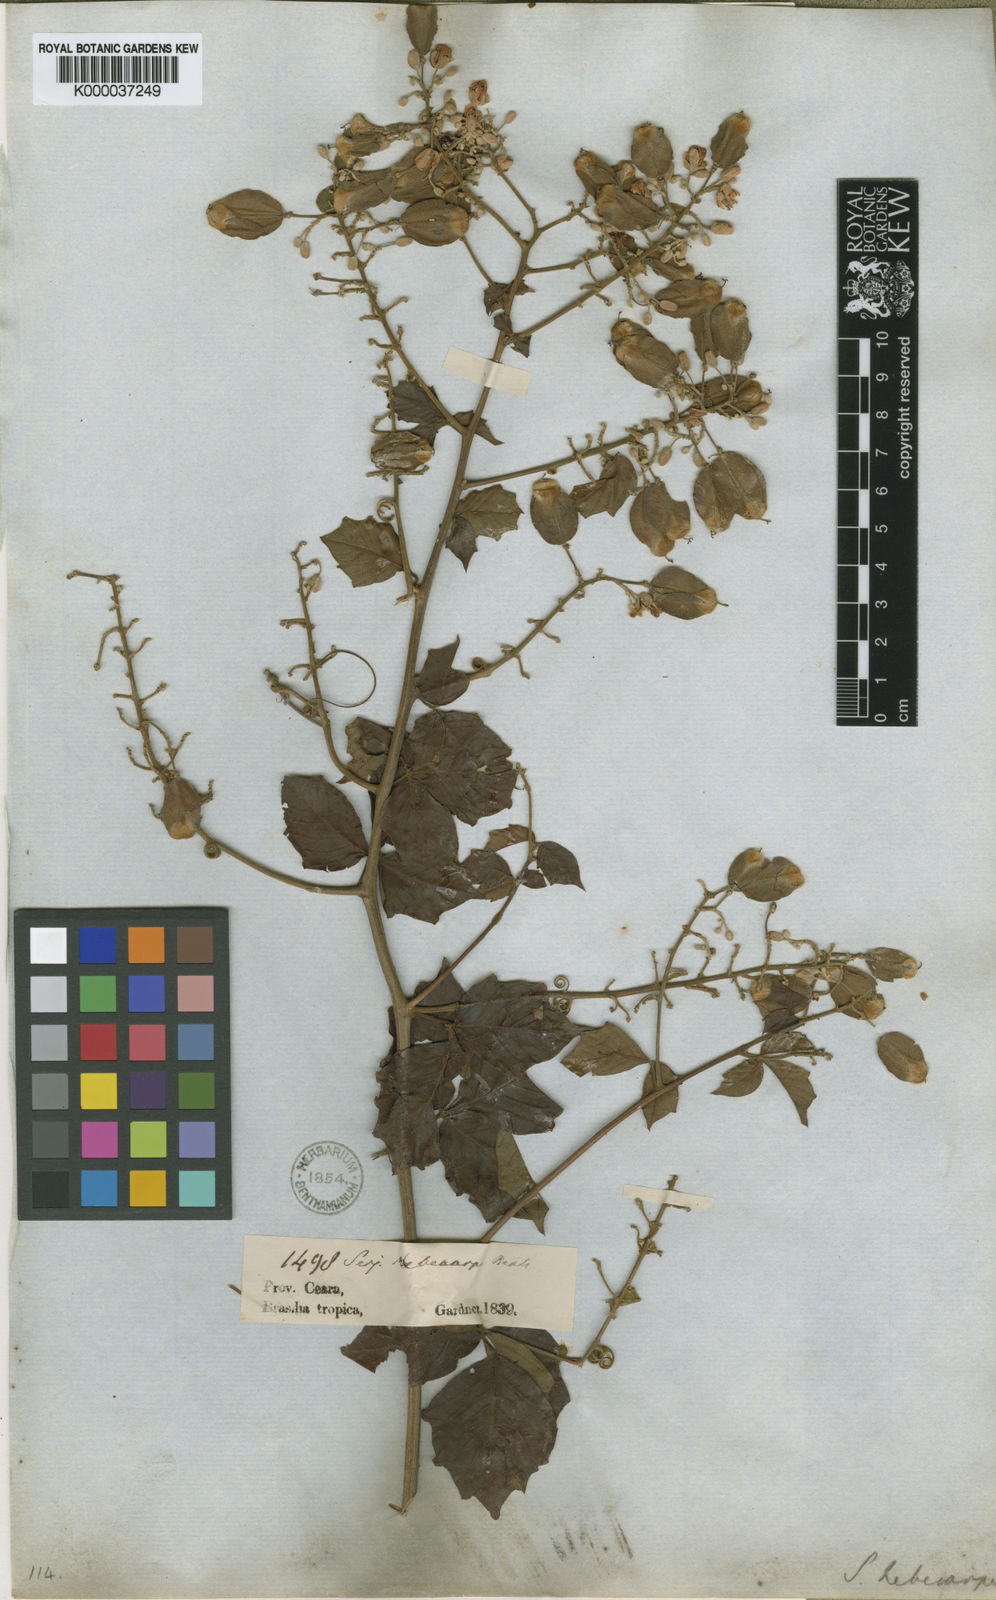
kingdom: Plantae
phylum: Tracheophyta
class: Magnoliopsida
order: Sapindales
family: Sapindaceae
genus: Serjania
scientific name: Serjania hebecarpa
